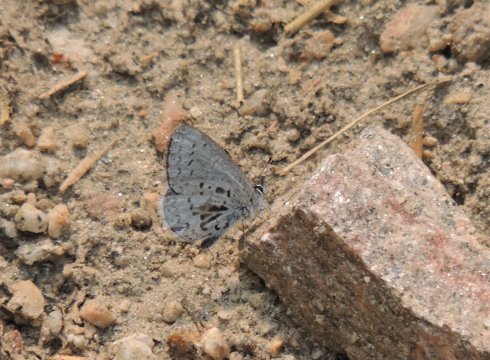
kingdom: Animalia
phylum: Arthropoda
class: Insecta
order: Lepidoptera
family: Lycaenidae
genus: Celastrina
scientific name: Celastrina asheri
